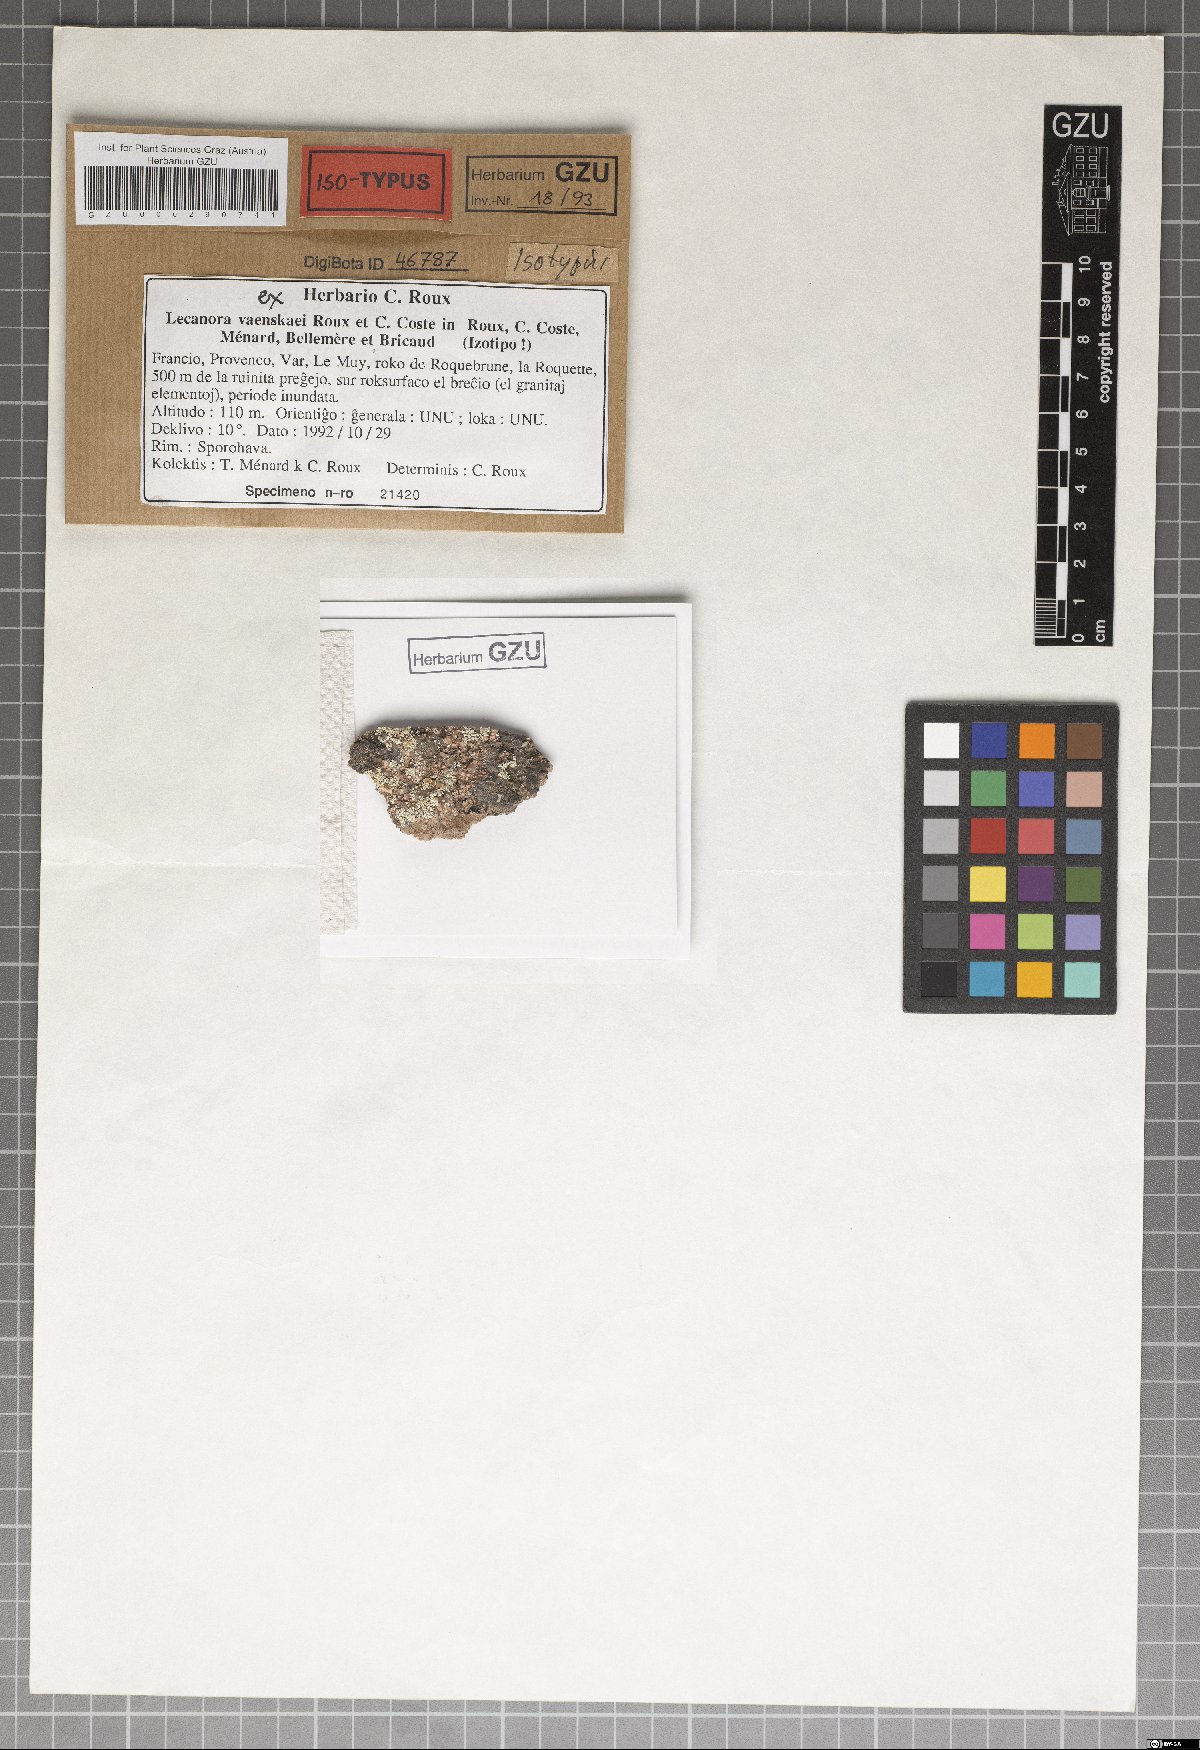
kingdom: Fungi
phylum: Ascomycota
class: Lecanoromycetes
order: Lecanorales
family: Lecanoraceae
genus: Protoparmeliopsis
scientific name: Protoparmeliopsis vaenskaei
